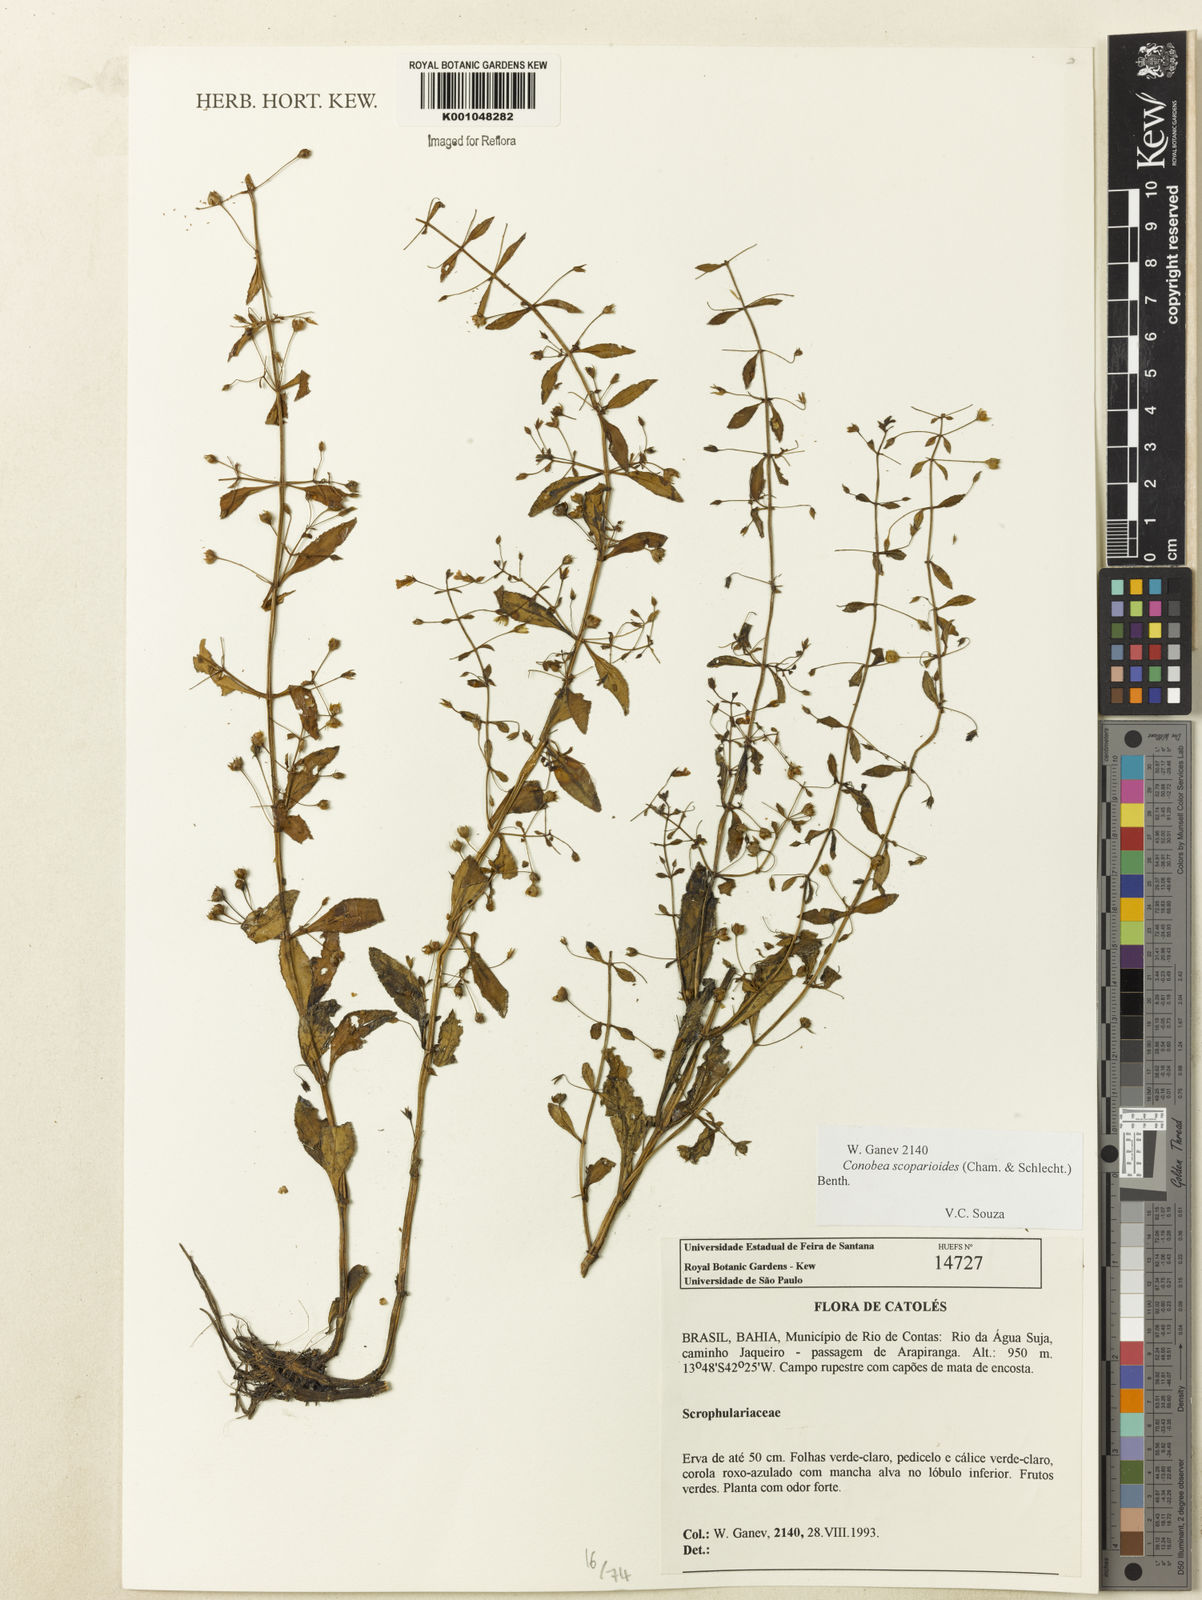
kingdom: Plantae
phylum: Tracheophyta
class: Magnoliopsida
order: Lamiales
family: Plantaginaceae
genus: Conobea
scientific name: Conobea scoparioides
